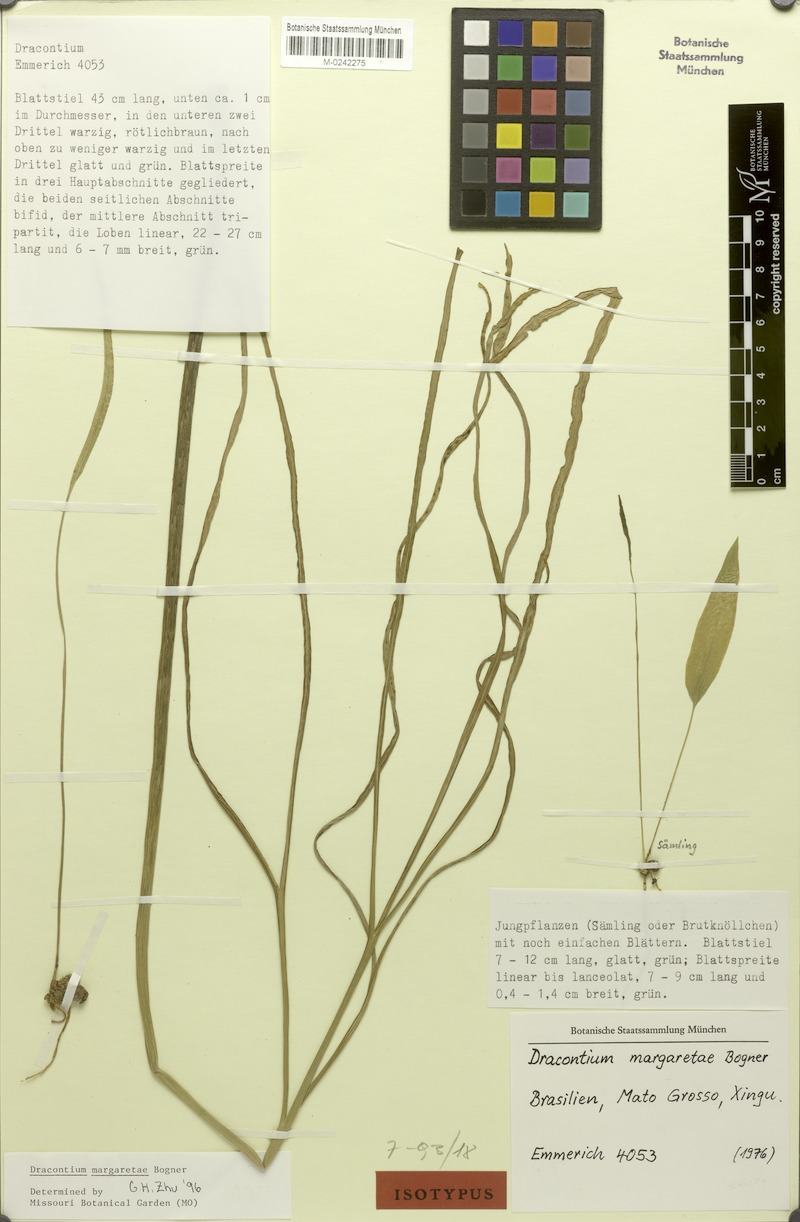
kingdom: Plantae
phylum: Tracheophyta
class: Liliopsida
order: Alismatales
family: Araceae
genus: Dracontium
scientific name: Dracontium margaretae
